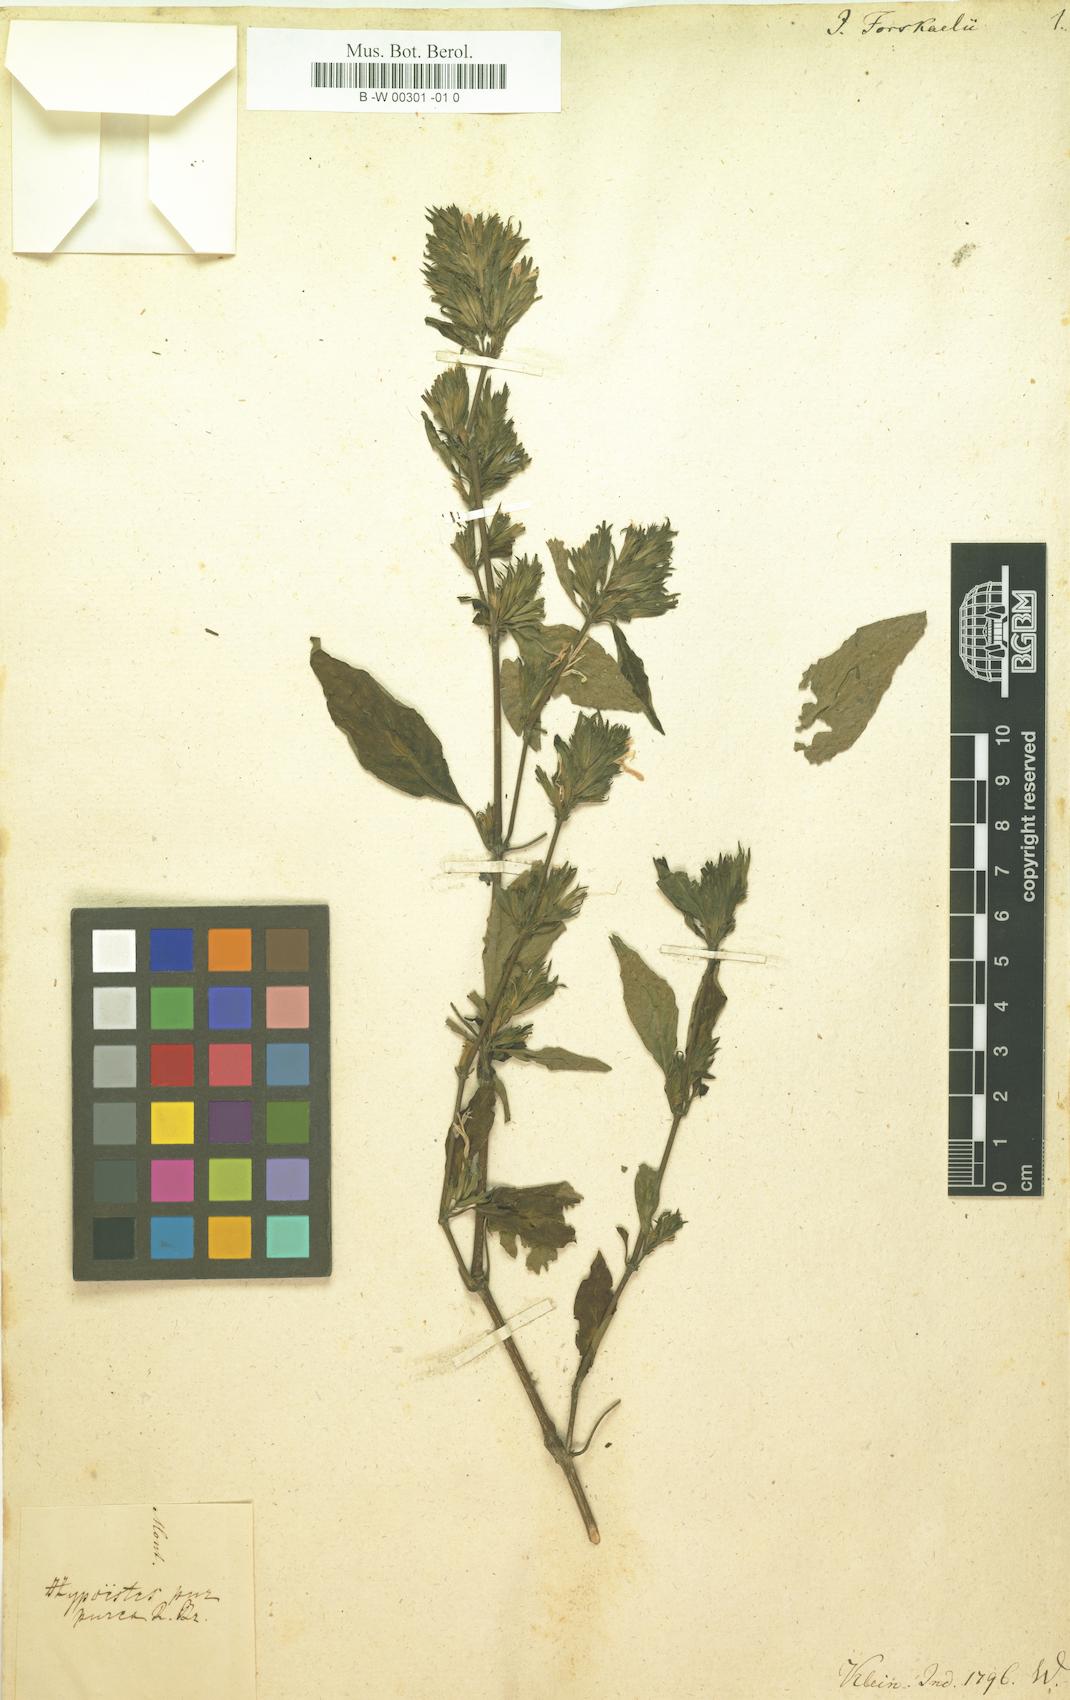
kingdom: Plantae
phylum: Tracheophyta
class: Magnoliopsida
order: Lamiales
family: Acanthaceae
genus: Hypoestes
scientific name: Hypoestes
